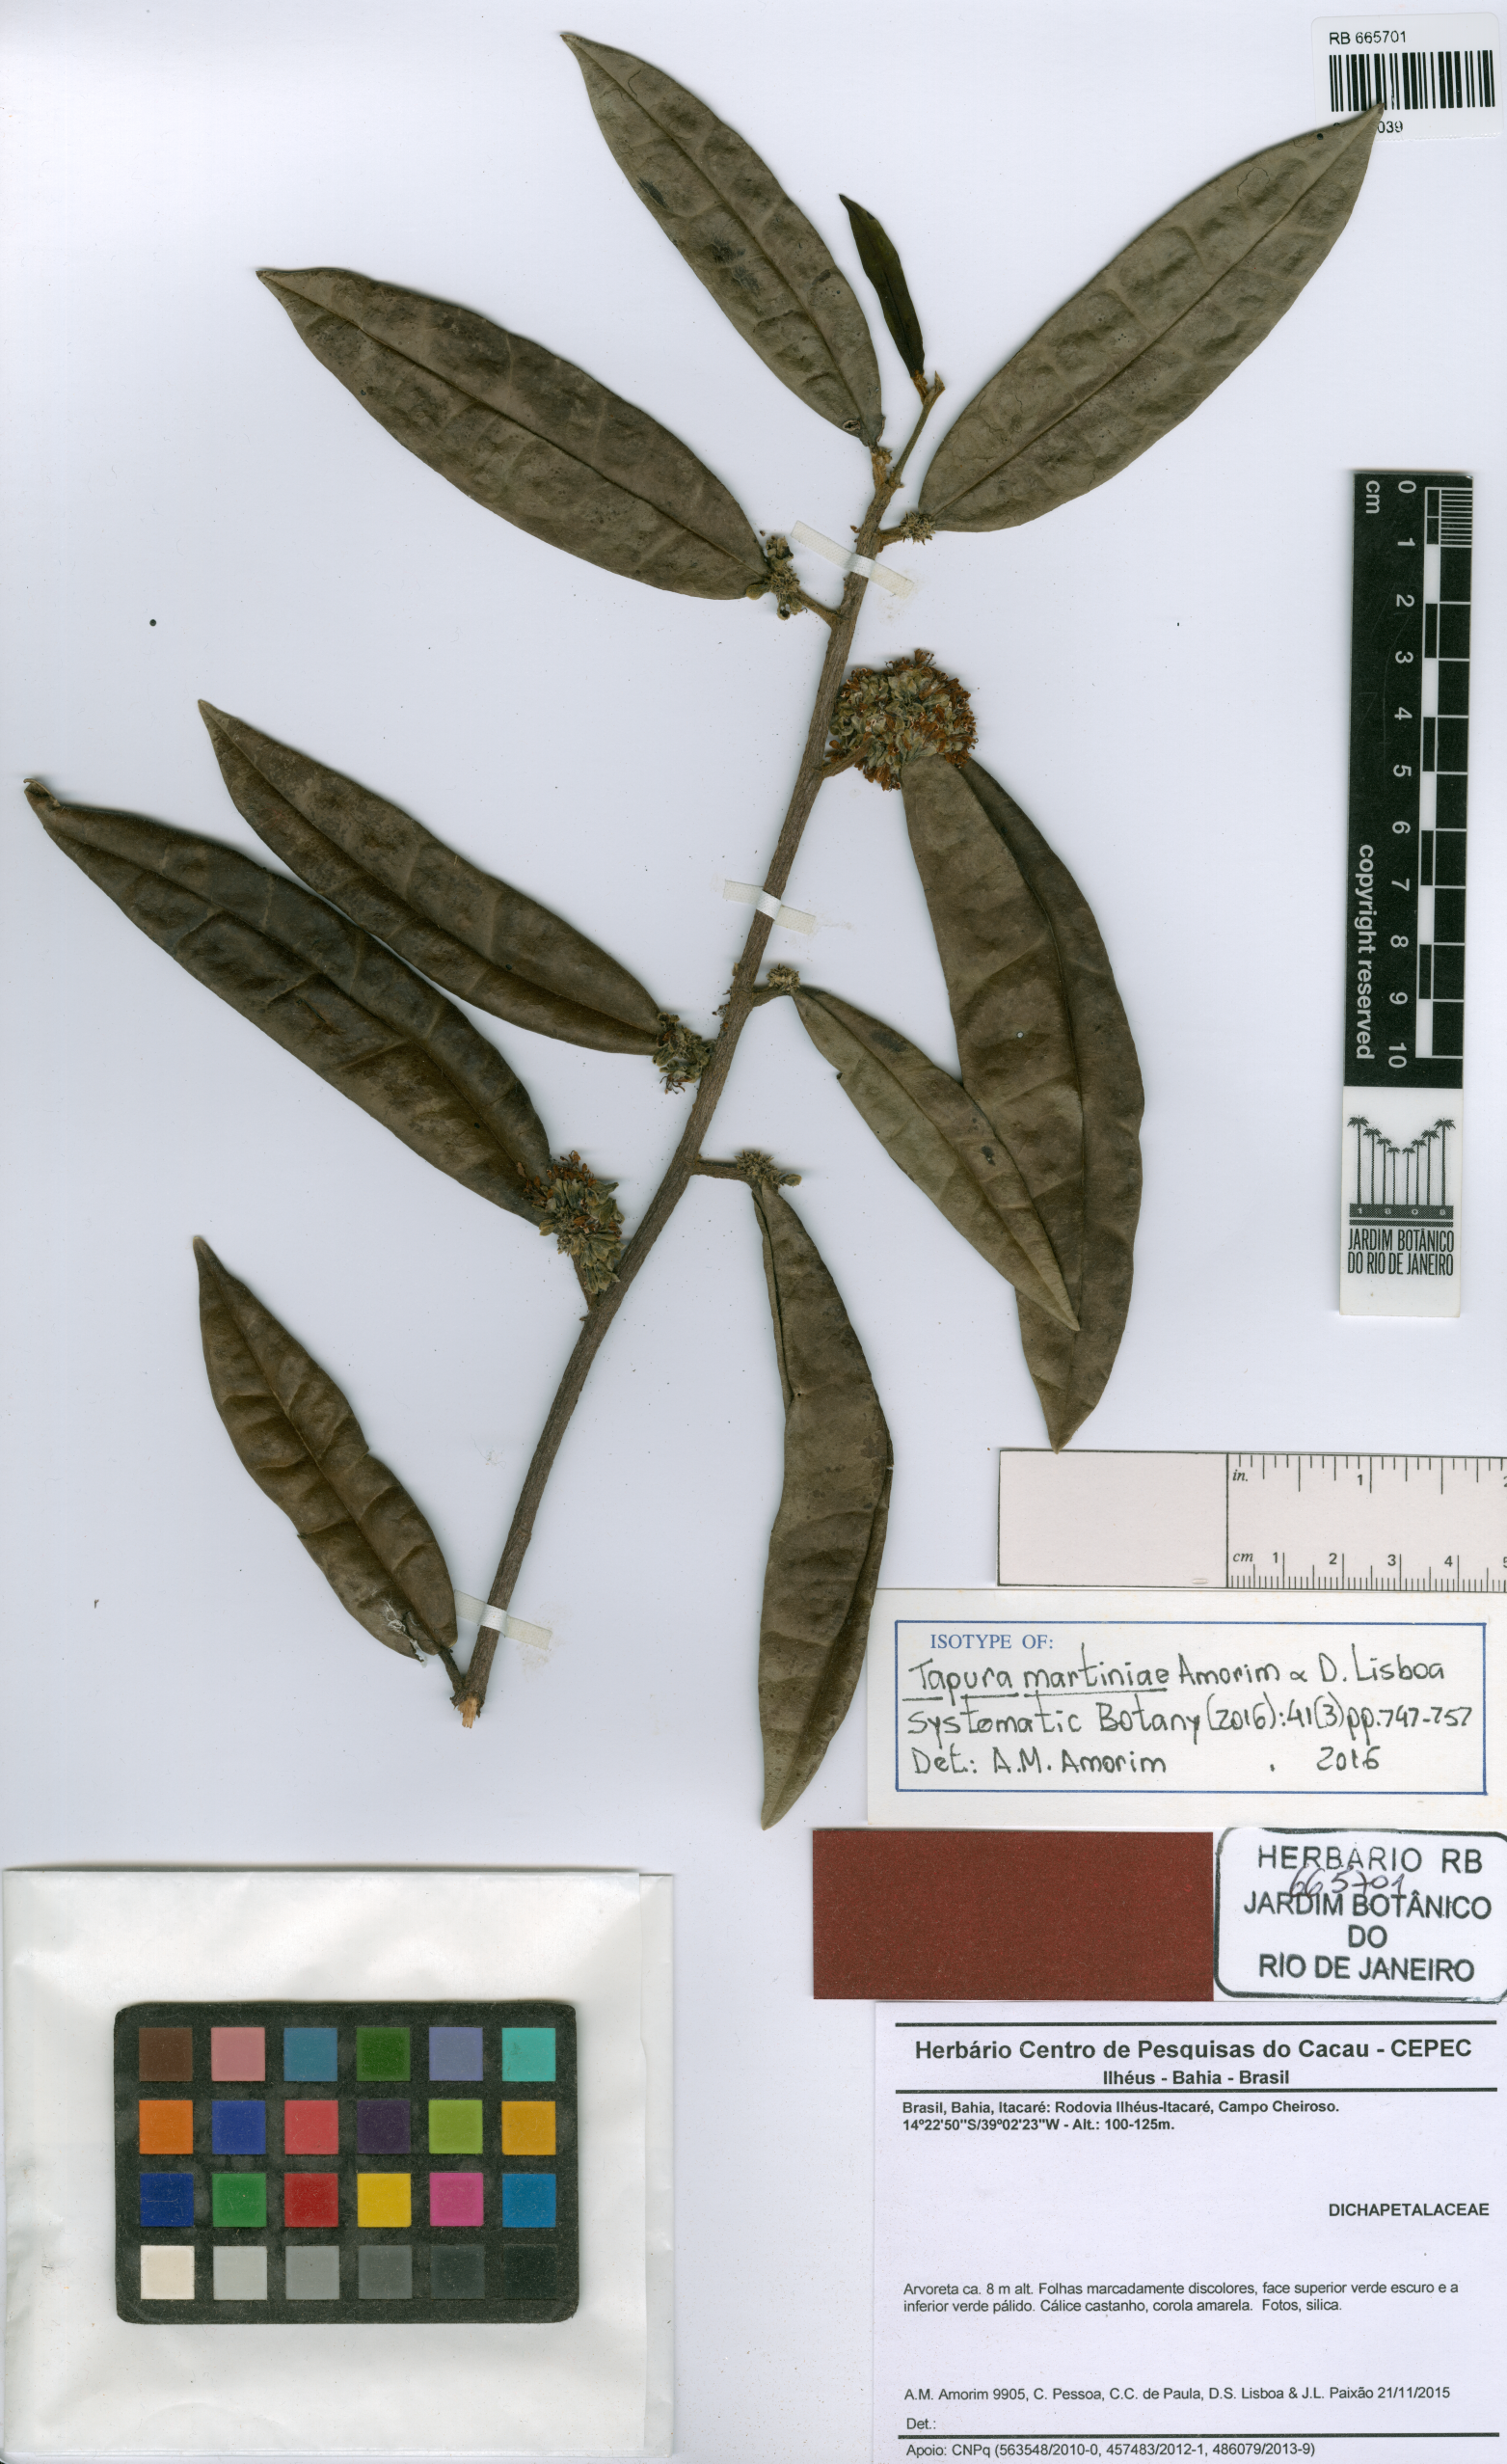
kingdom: Plantae
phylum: Tracheophyta
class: Magnoliopsida
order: Malpighiales
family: Dichapetalaceae
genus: Tapura
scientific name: Tapura martiniae
